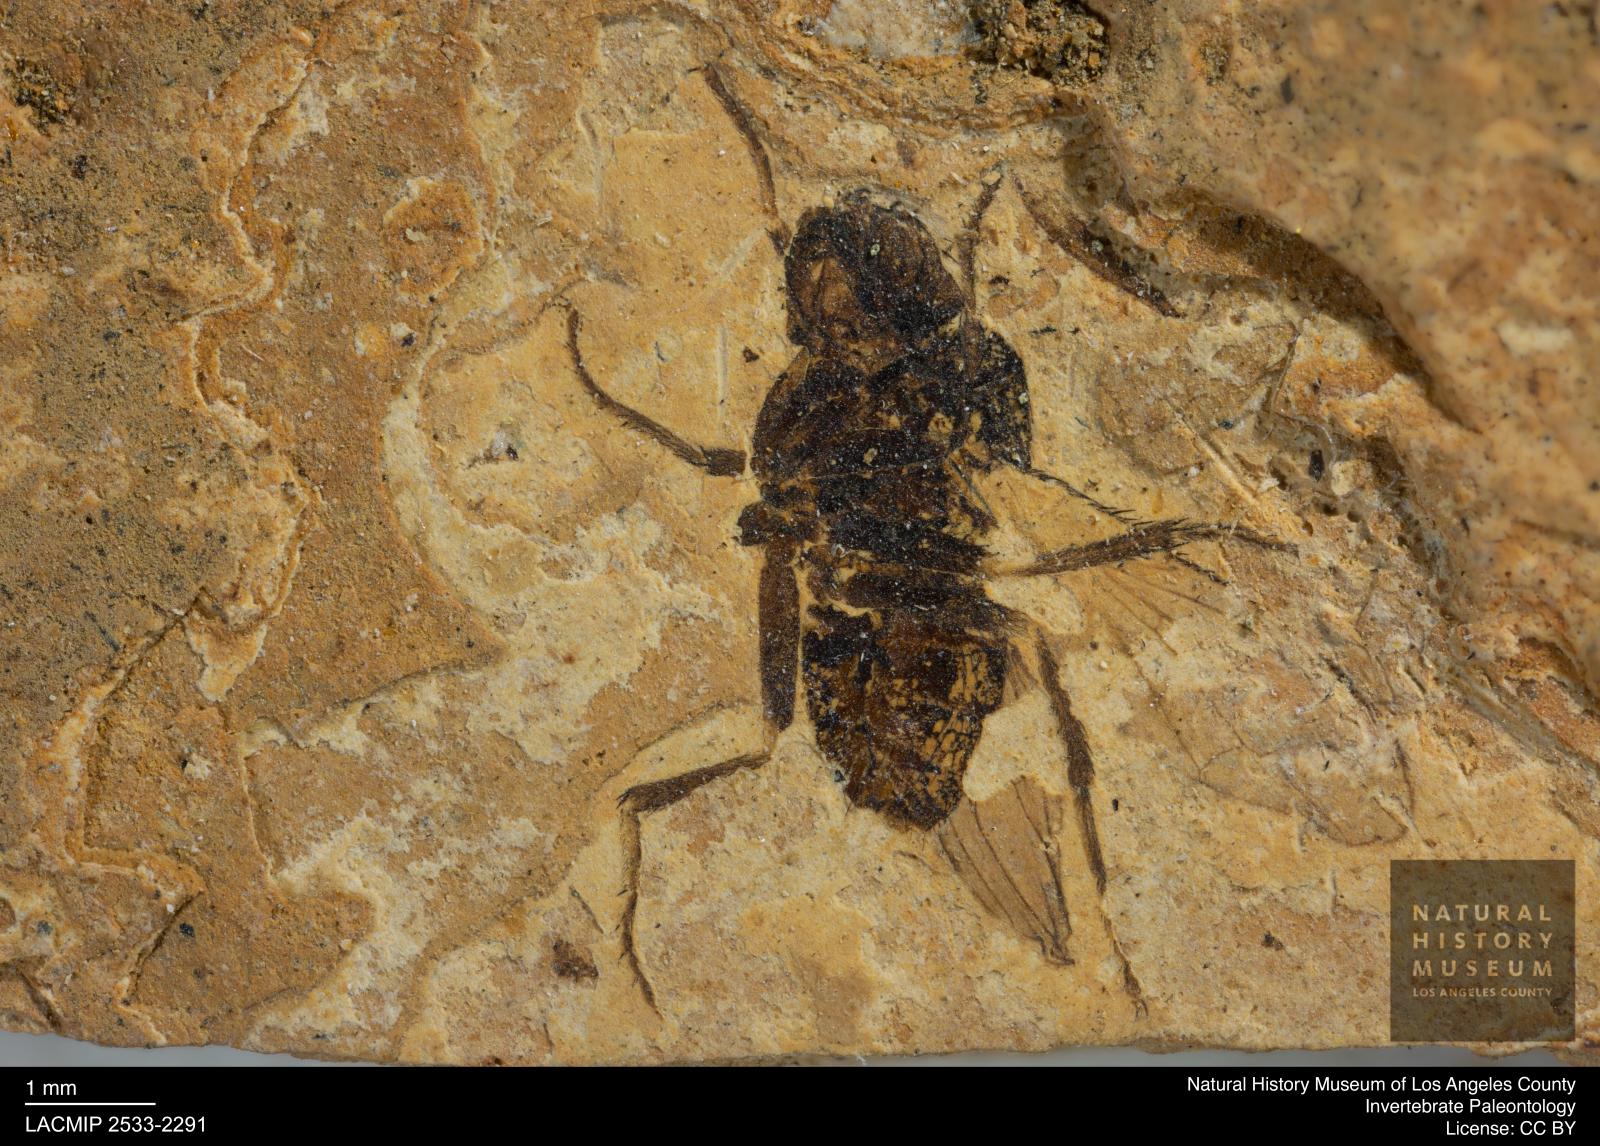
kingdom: Animalia
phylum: Arthropoda
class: Insecta
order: Diptera
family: Heleomyzidae
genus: Heleomyza
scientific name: Heleomyza Leria bauckhorni
